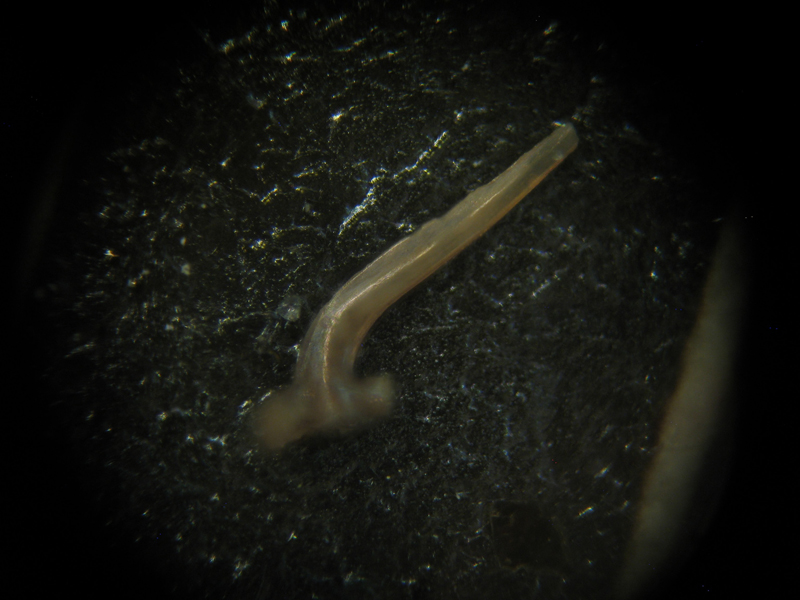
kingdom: Animalia
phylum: Chordata
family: Balognathidae
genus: Prioniodus
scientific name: Prioniodus
